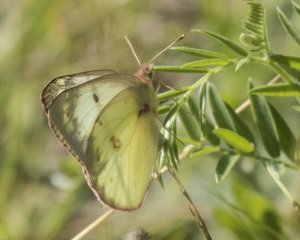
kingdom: Animalia
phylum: Arthropoda
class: Insecta
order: Lepidoptera
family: Pieridae
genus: Colias
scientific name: Colias philodice
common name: Clouded Sulphur
